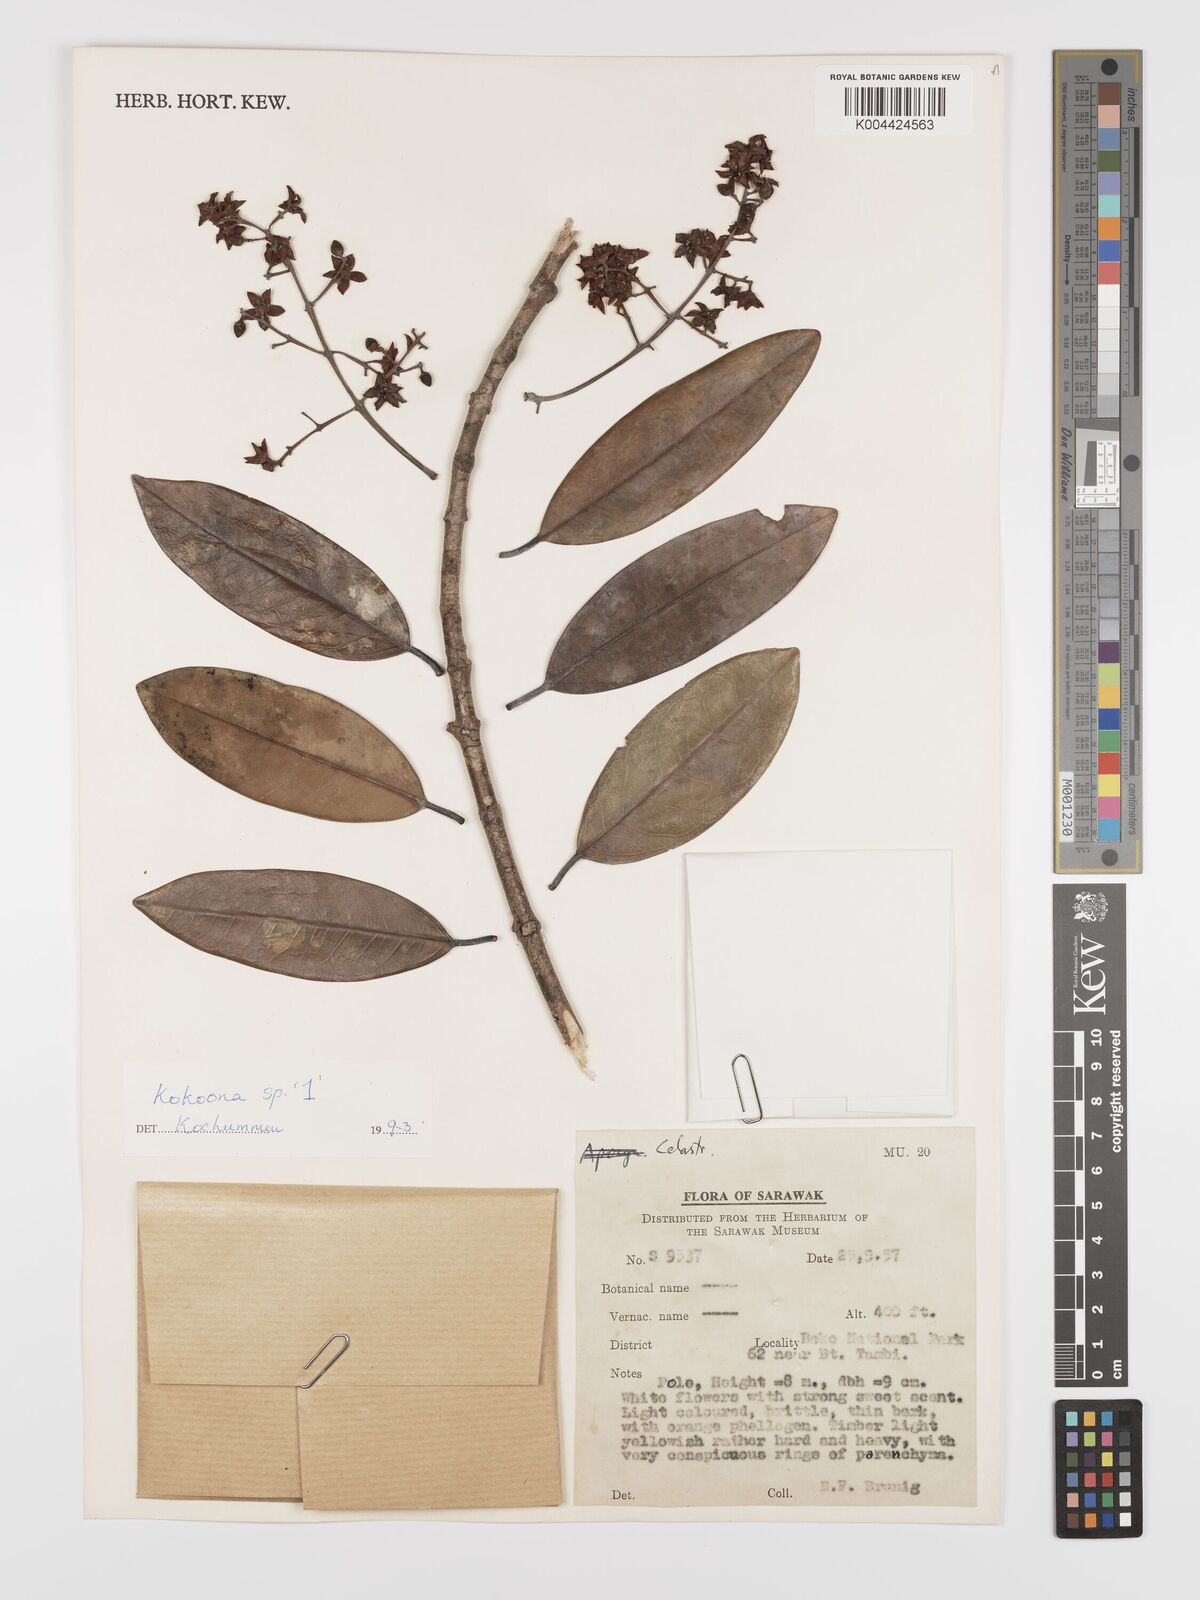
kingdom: Plantae
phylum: Tracheophyta
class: Magnoliopsida
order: Celastrales
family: Celastraceae
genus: Kokoona
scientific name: Kokoona littoralis
